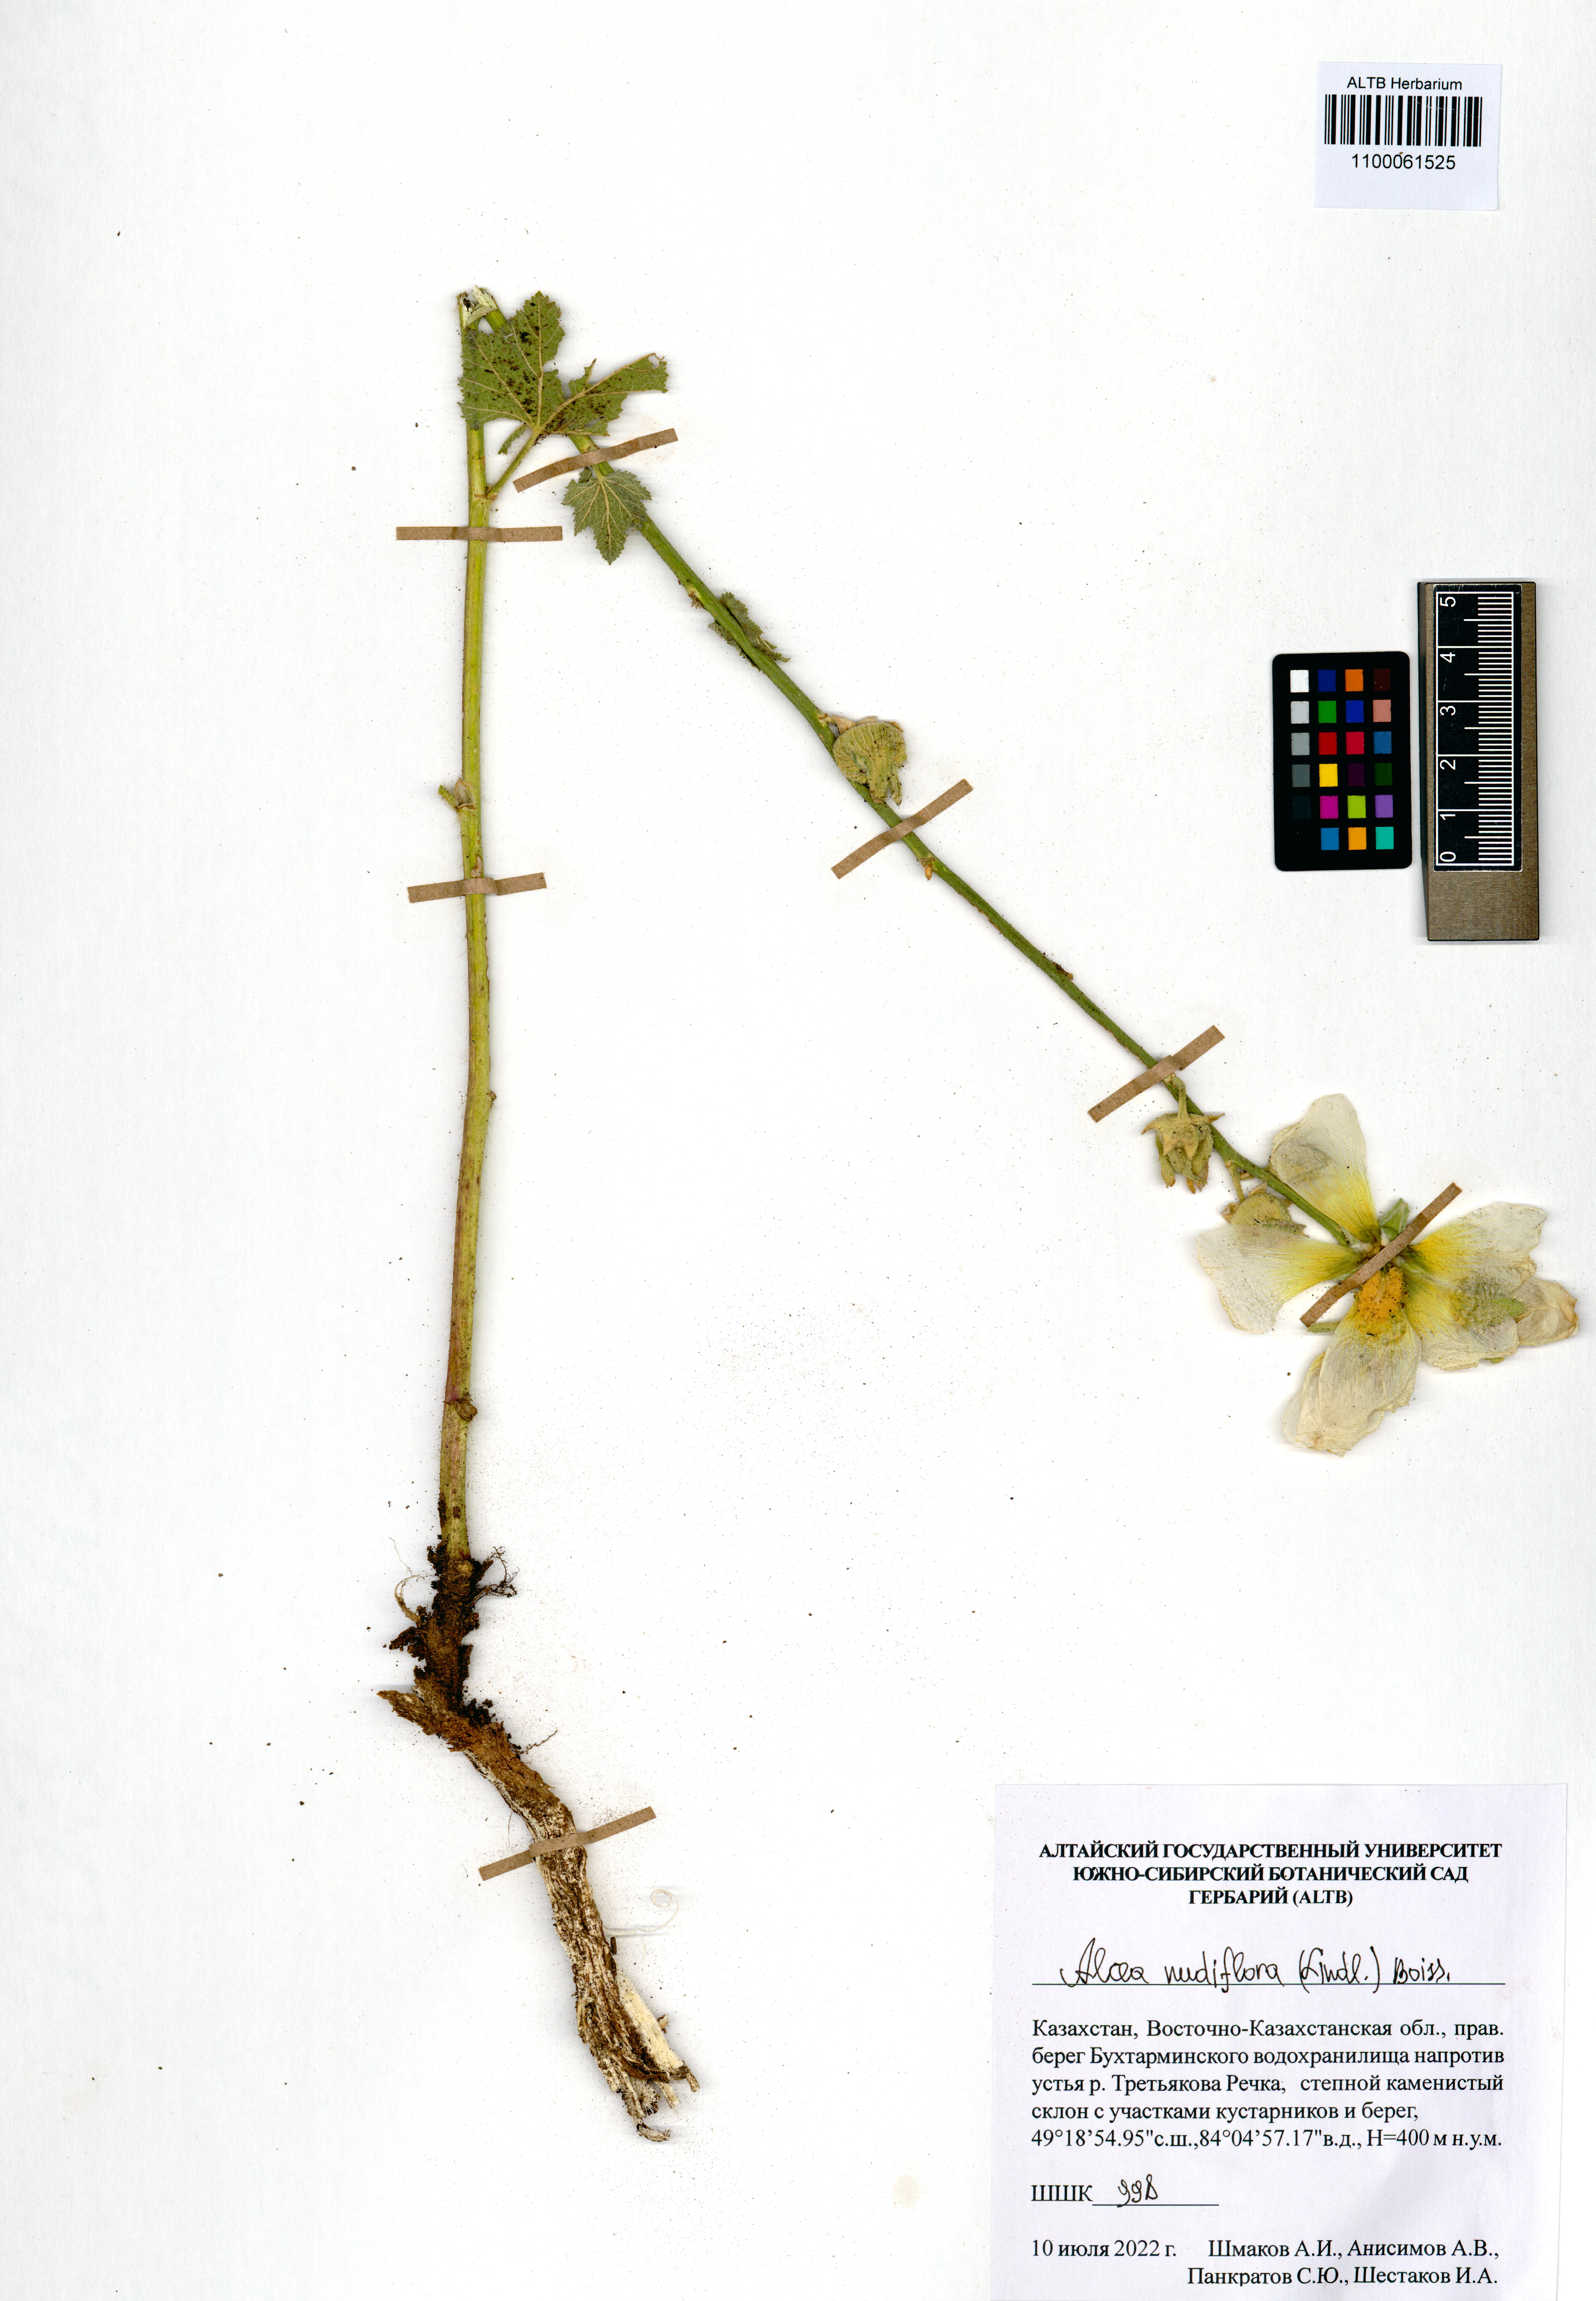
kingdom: Plantae
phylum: Tracheophyta
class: Magnoliopsida
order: Malvales
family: Malvaceae
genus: Alcea
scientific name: Alcea nudiflora
